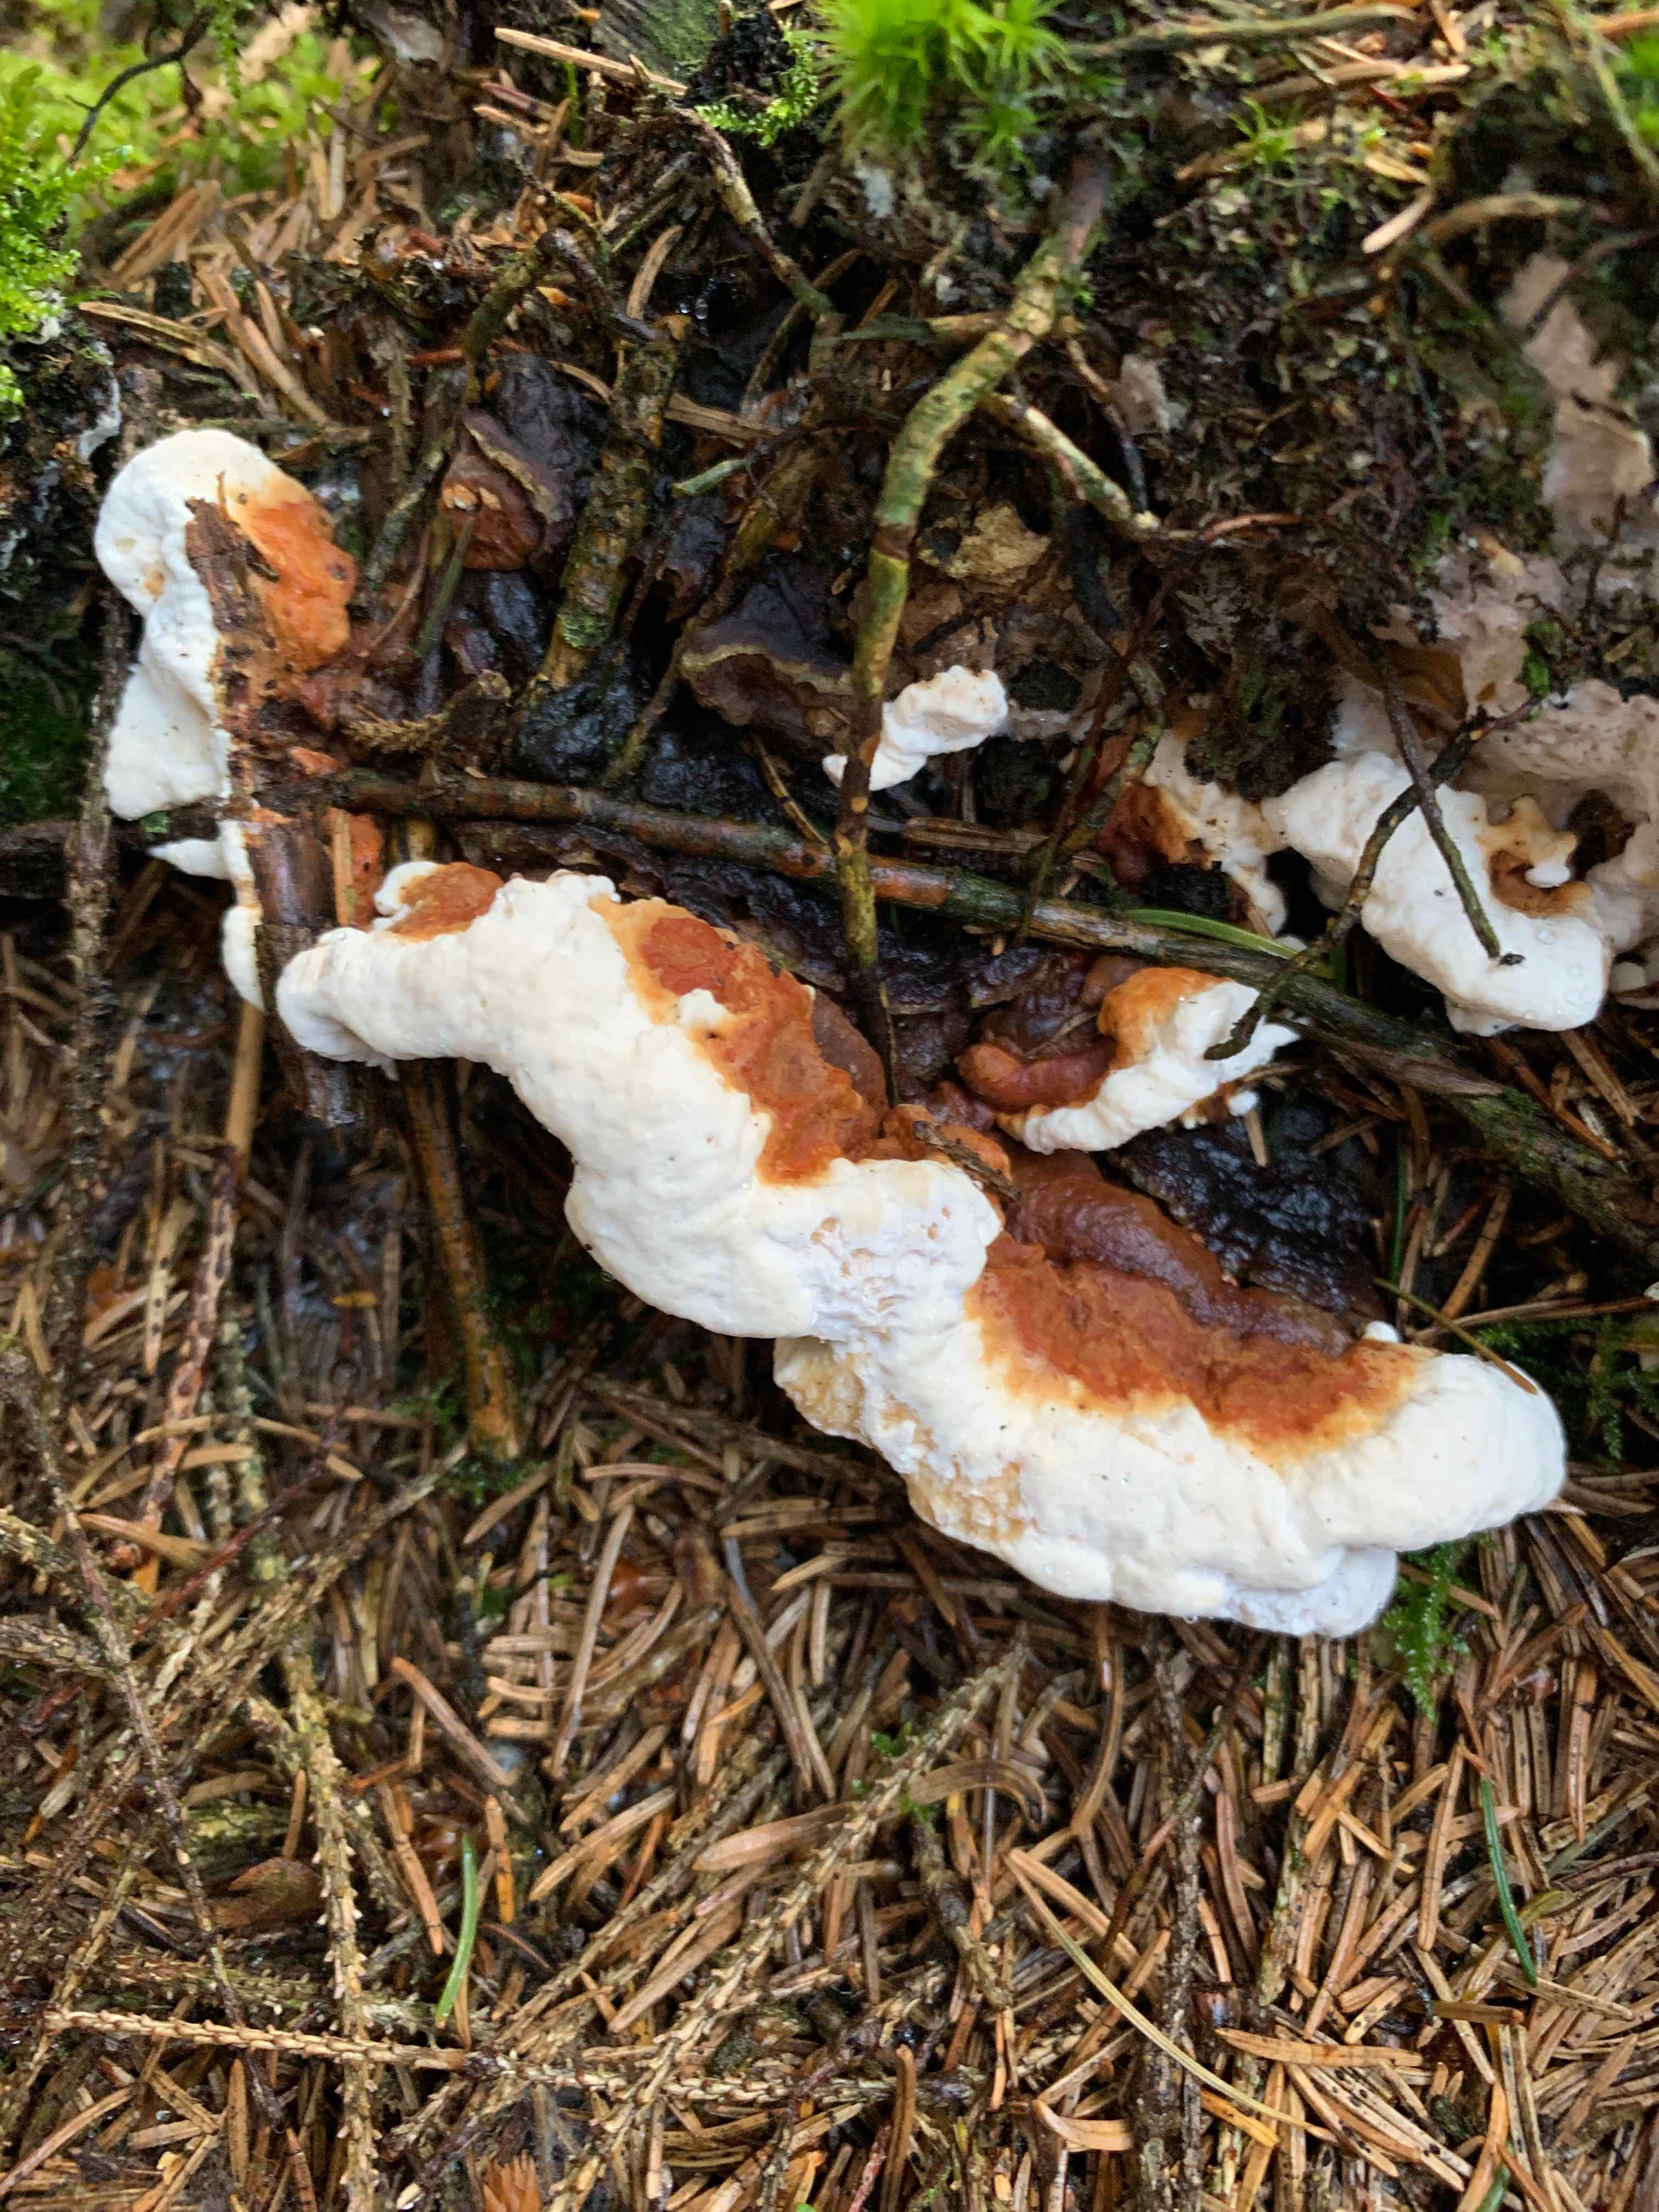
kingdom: Fungi
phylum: Basidiomycota
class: Agaricomycetes
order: Russulales
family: Bondarzewiaceae
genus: Heterobasidion
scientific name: Heterobasidion annosum
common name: almindelig rodfordærver
